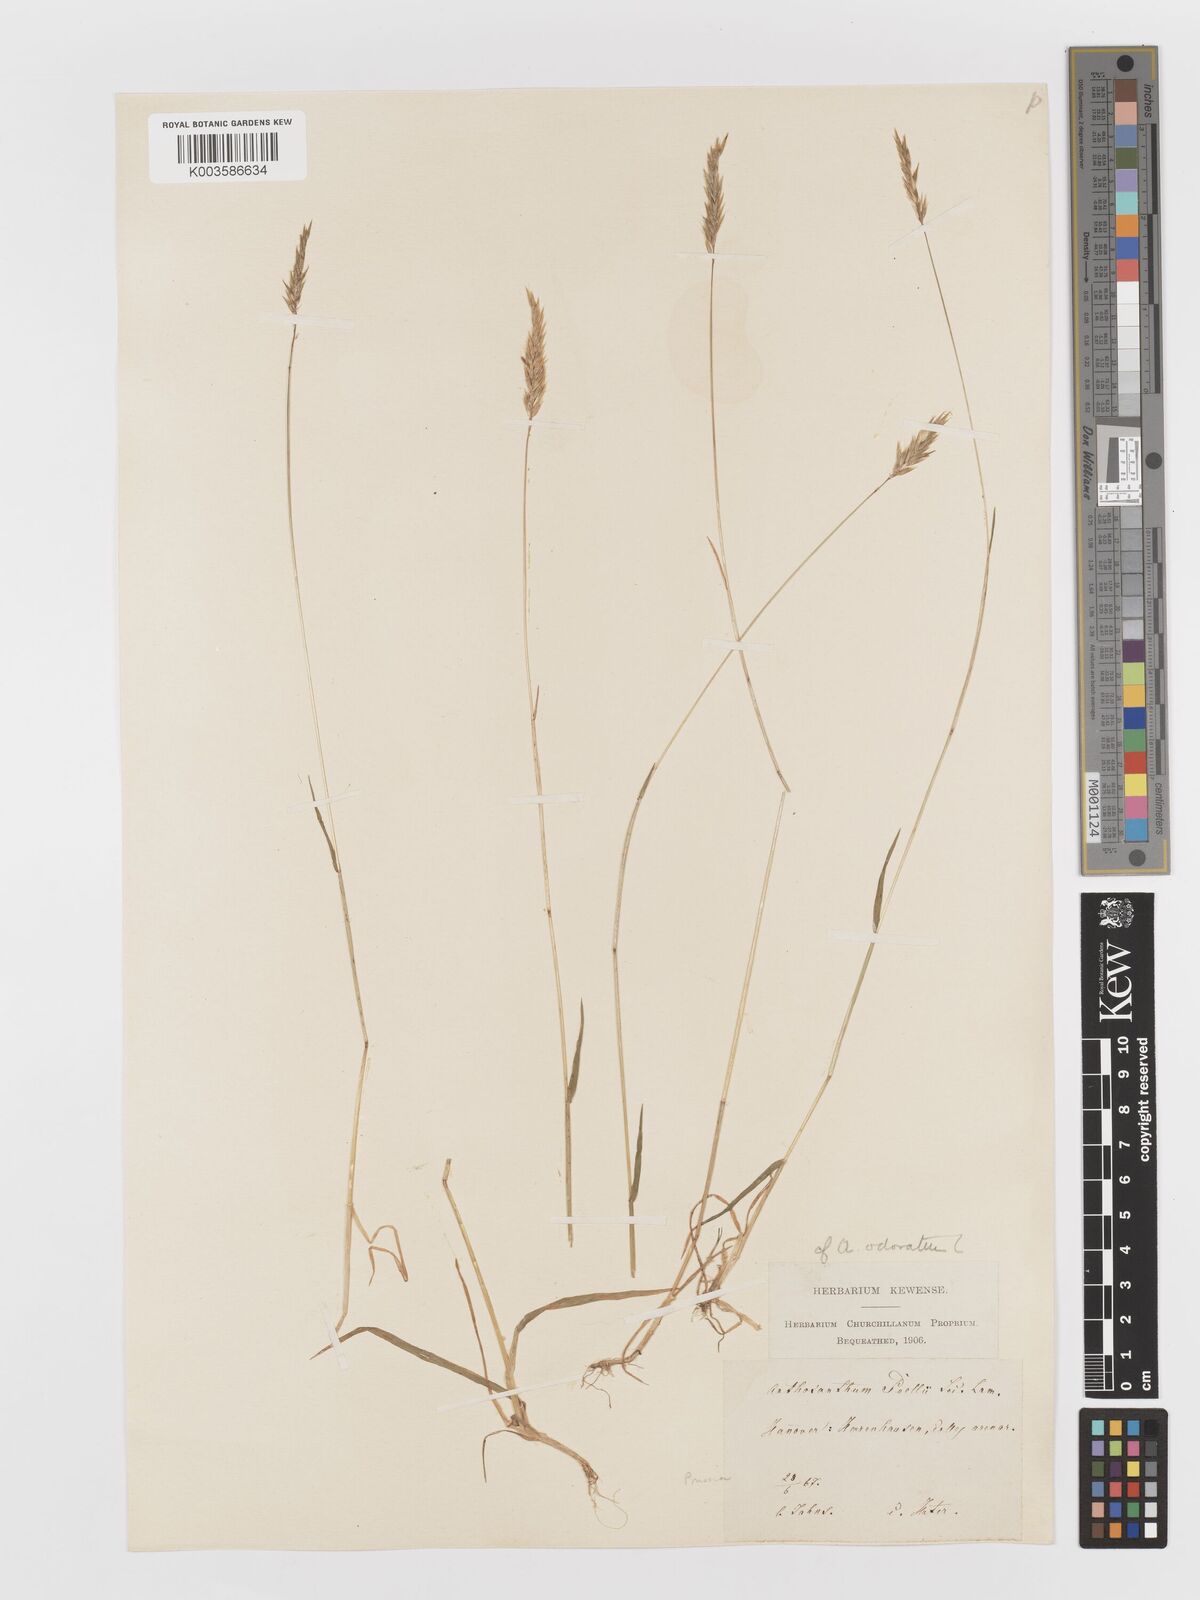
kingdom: Plantae
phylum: Tracheophyta
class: Liliopsida
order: Poales
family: Poaceae
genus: Anthoxanthum
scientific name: Anthoxanthum odoratum
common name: Sweet vernalgrass
